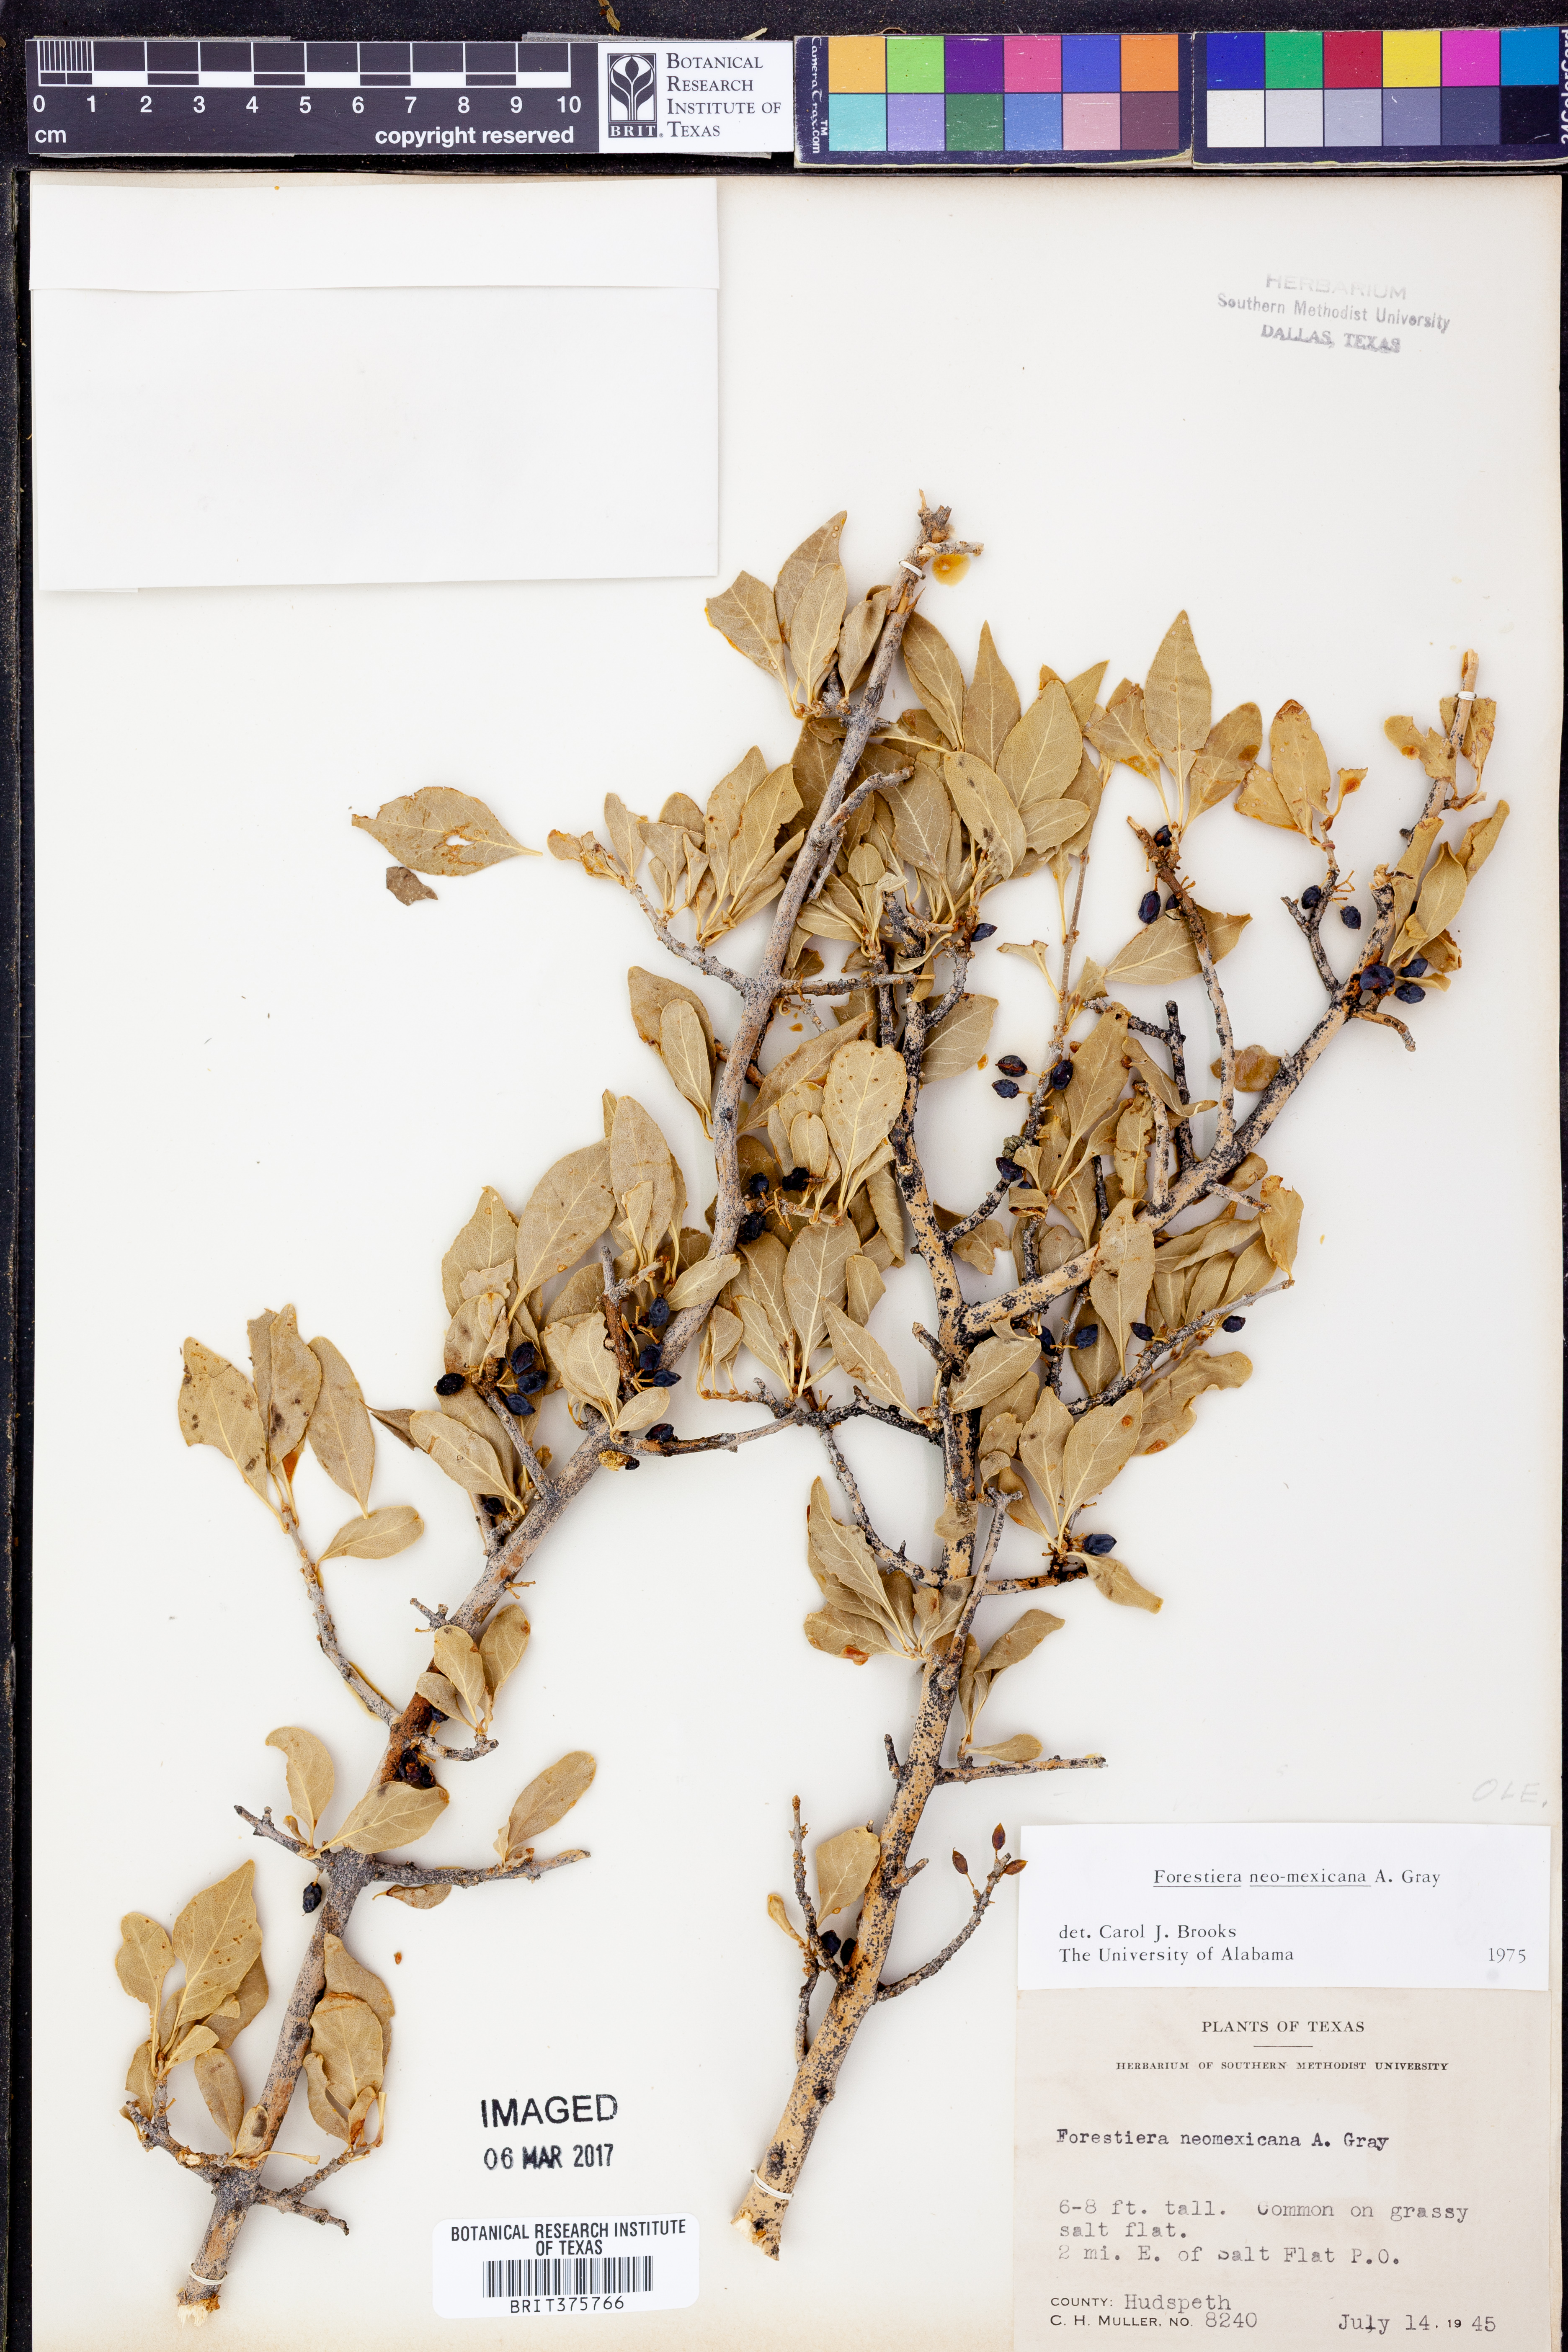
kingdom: Plantae
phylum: Tracheophyta
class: Magnoliopsida
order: Lamiales
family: Oleaceae
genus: Forestiera
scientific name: Forestiera pubescens
